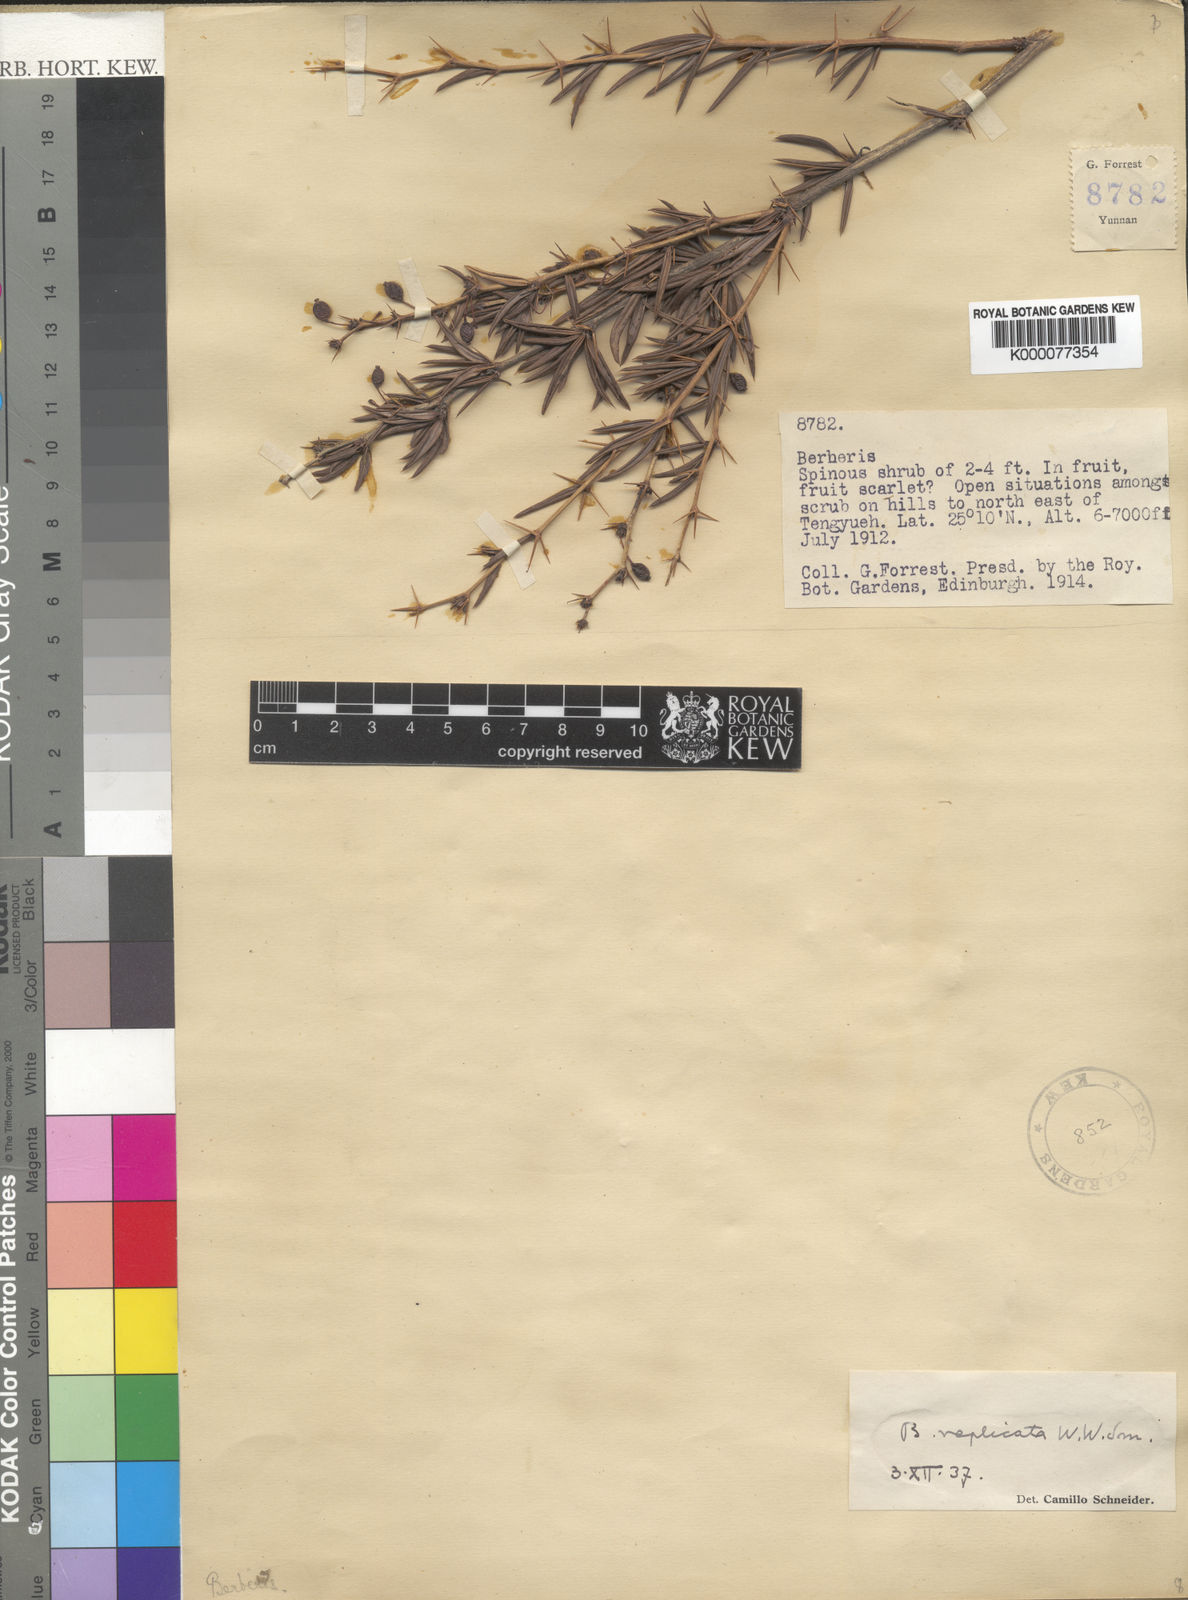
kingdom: Plantae
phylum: Tracheophyta
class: Magnoliopsida
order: Ranunculales
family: Berberidaceae
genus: Berberis
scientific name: Berberis replicata
